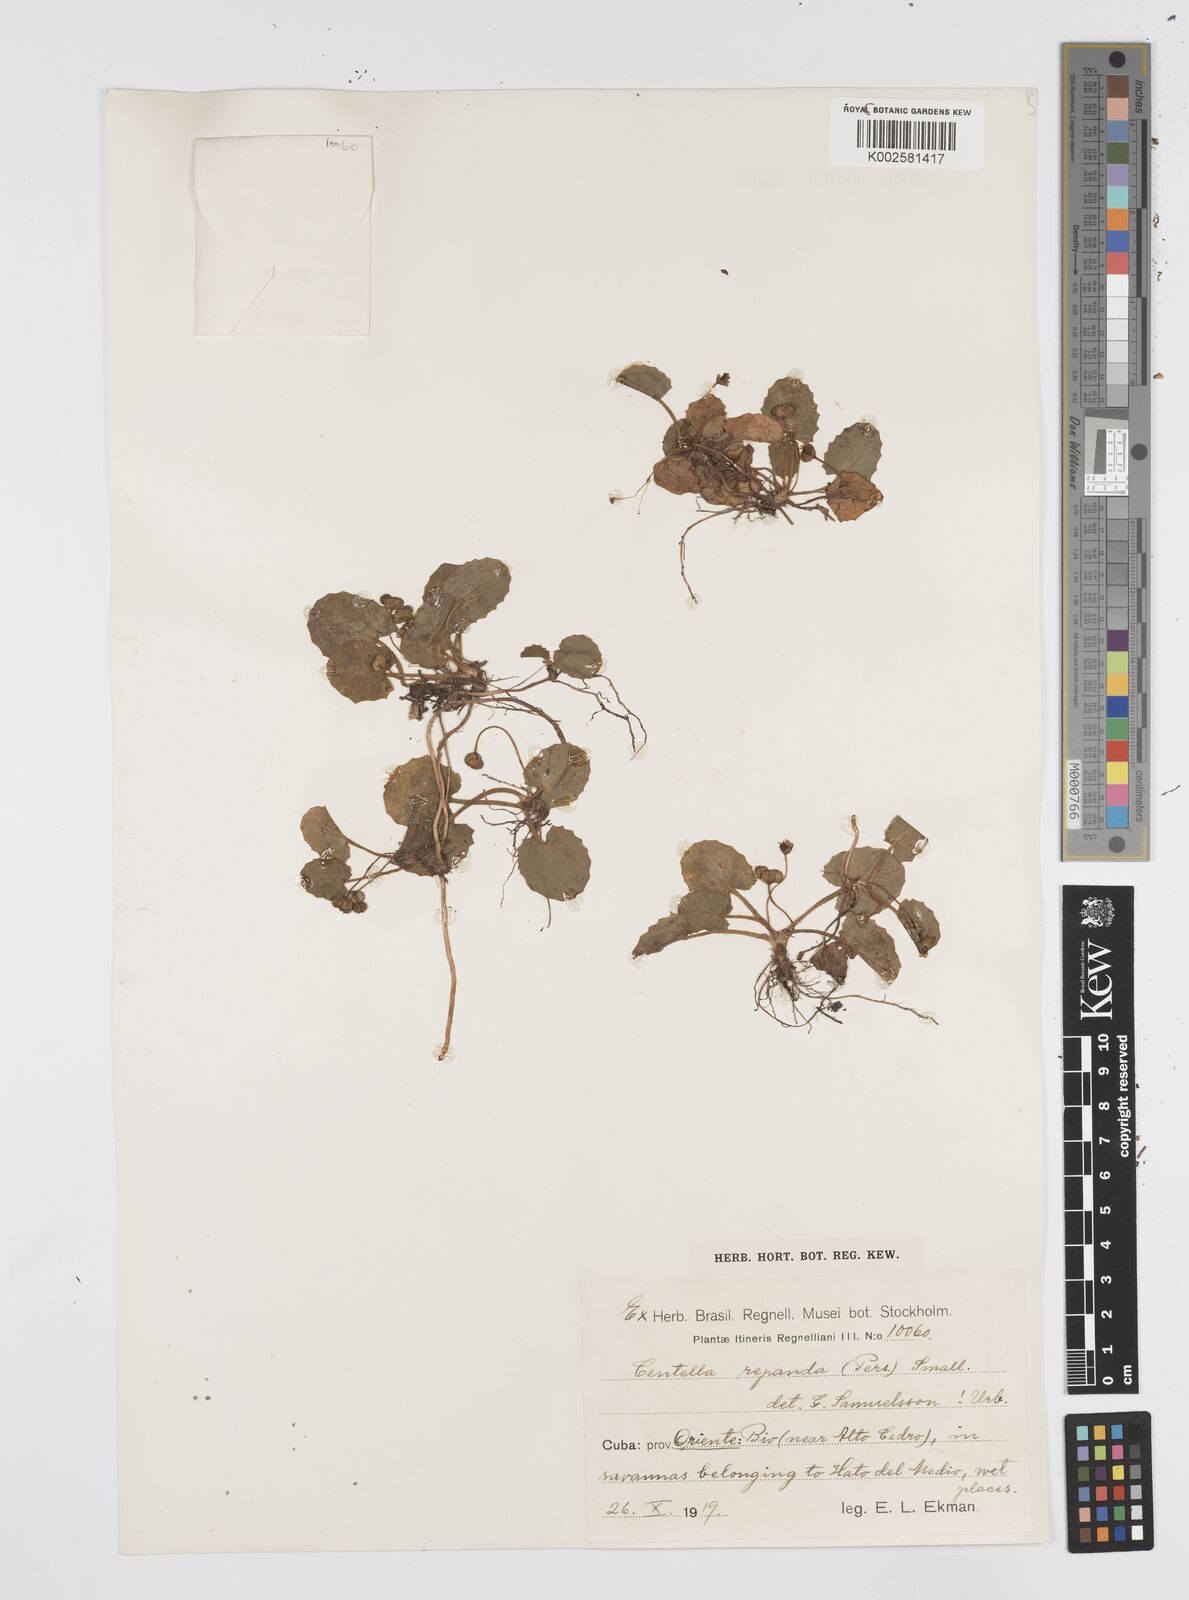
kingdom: Plantae
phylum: Tracheophyta
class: Magnoliopsida
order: Apiales
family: Apiaceae
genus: Centella
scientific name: Centella asiatica
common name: Spadeleaf
